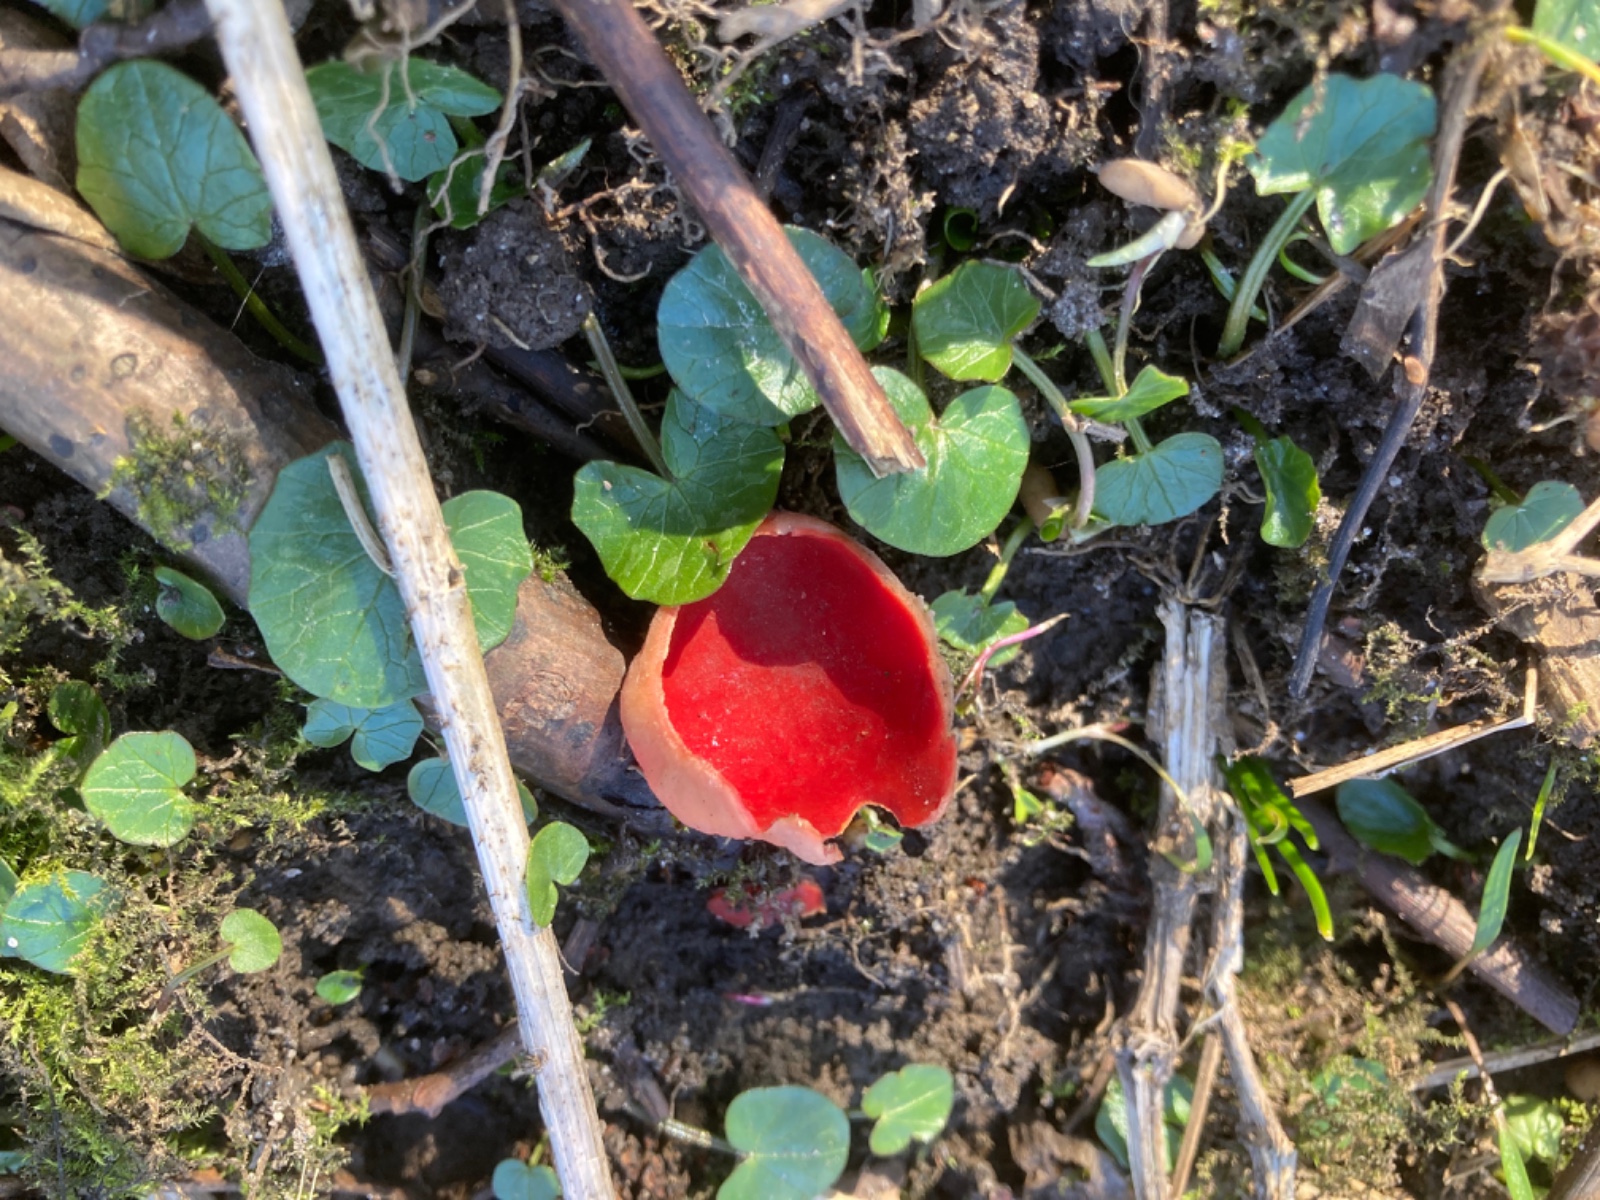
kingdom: Fungi
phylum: Ascomycota
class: Pezizomycetes
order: Pezizales
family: Sarcoscyphaceae
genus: Sarcoscypha
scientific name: Sarcoscypha austriaca
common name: krølhåret pragtbæger
